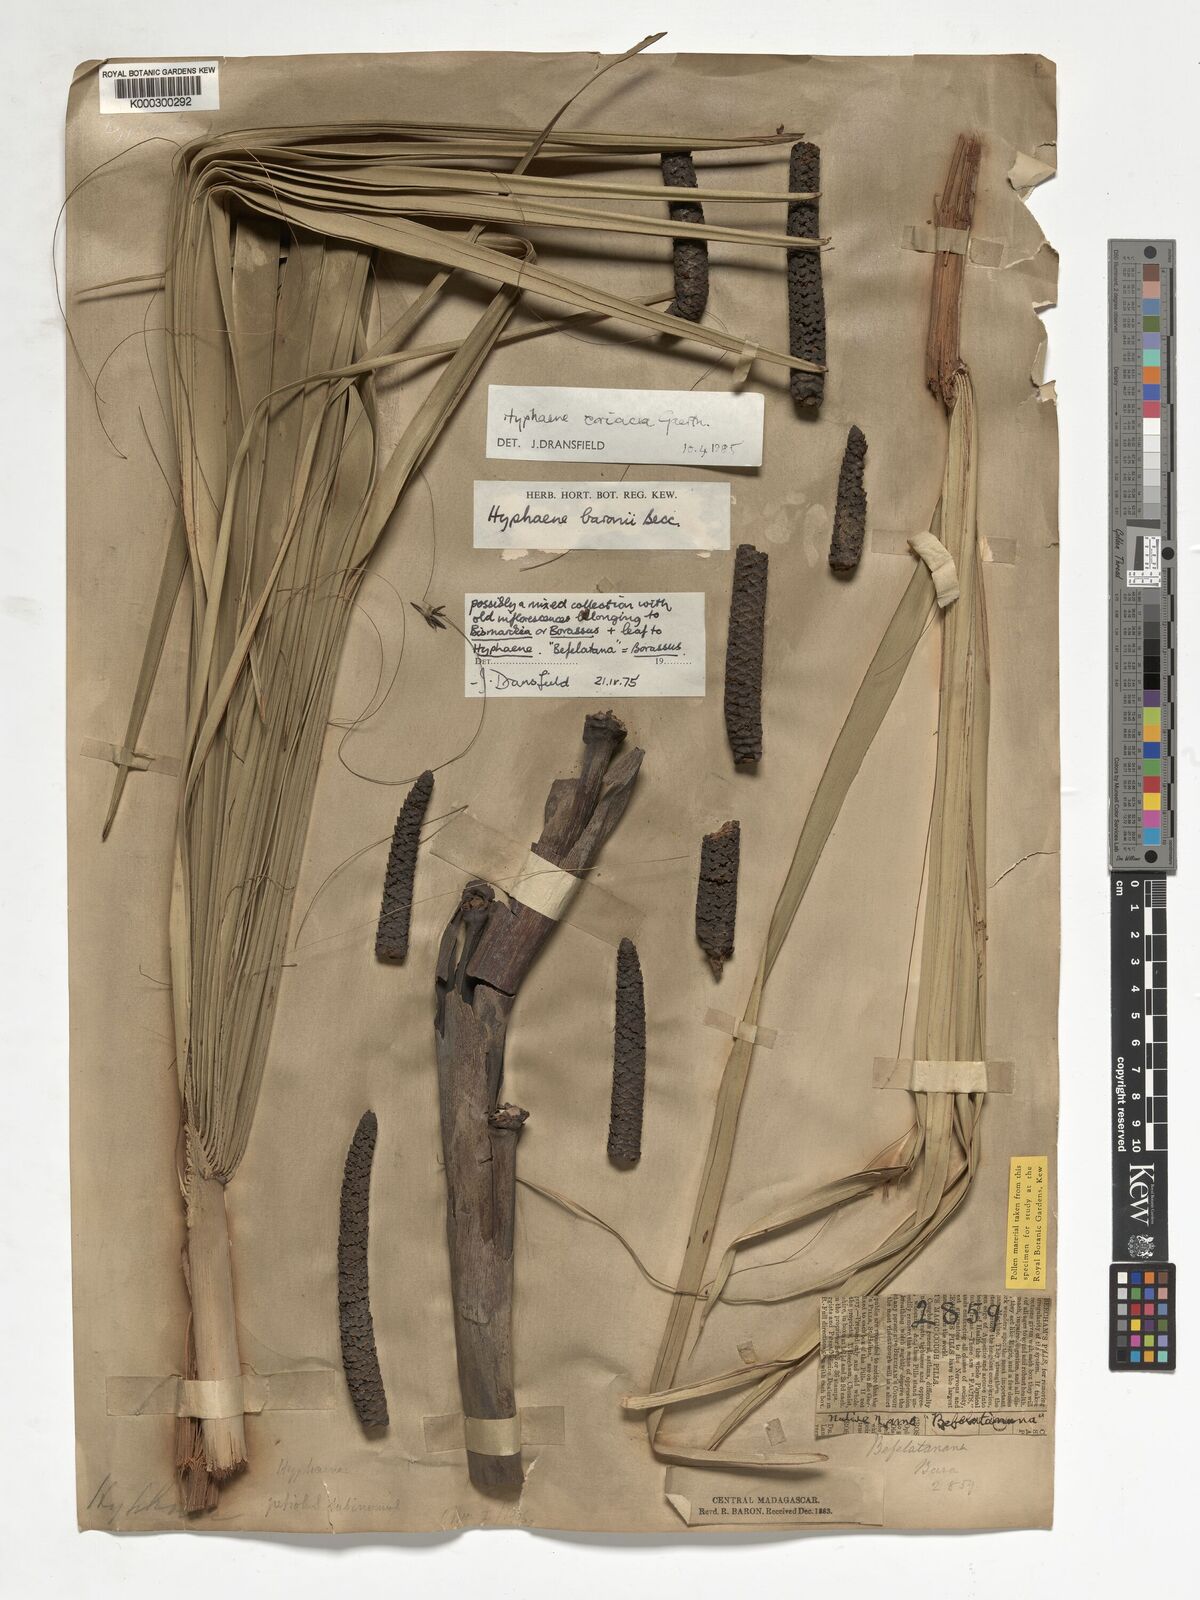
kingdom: Plantae
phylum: Tracheophyta
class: Liliopsida
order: Arecales
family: Arecaceae
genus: Hyphaene
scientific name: Hyphaene coriacea
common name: Ilala palm
